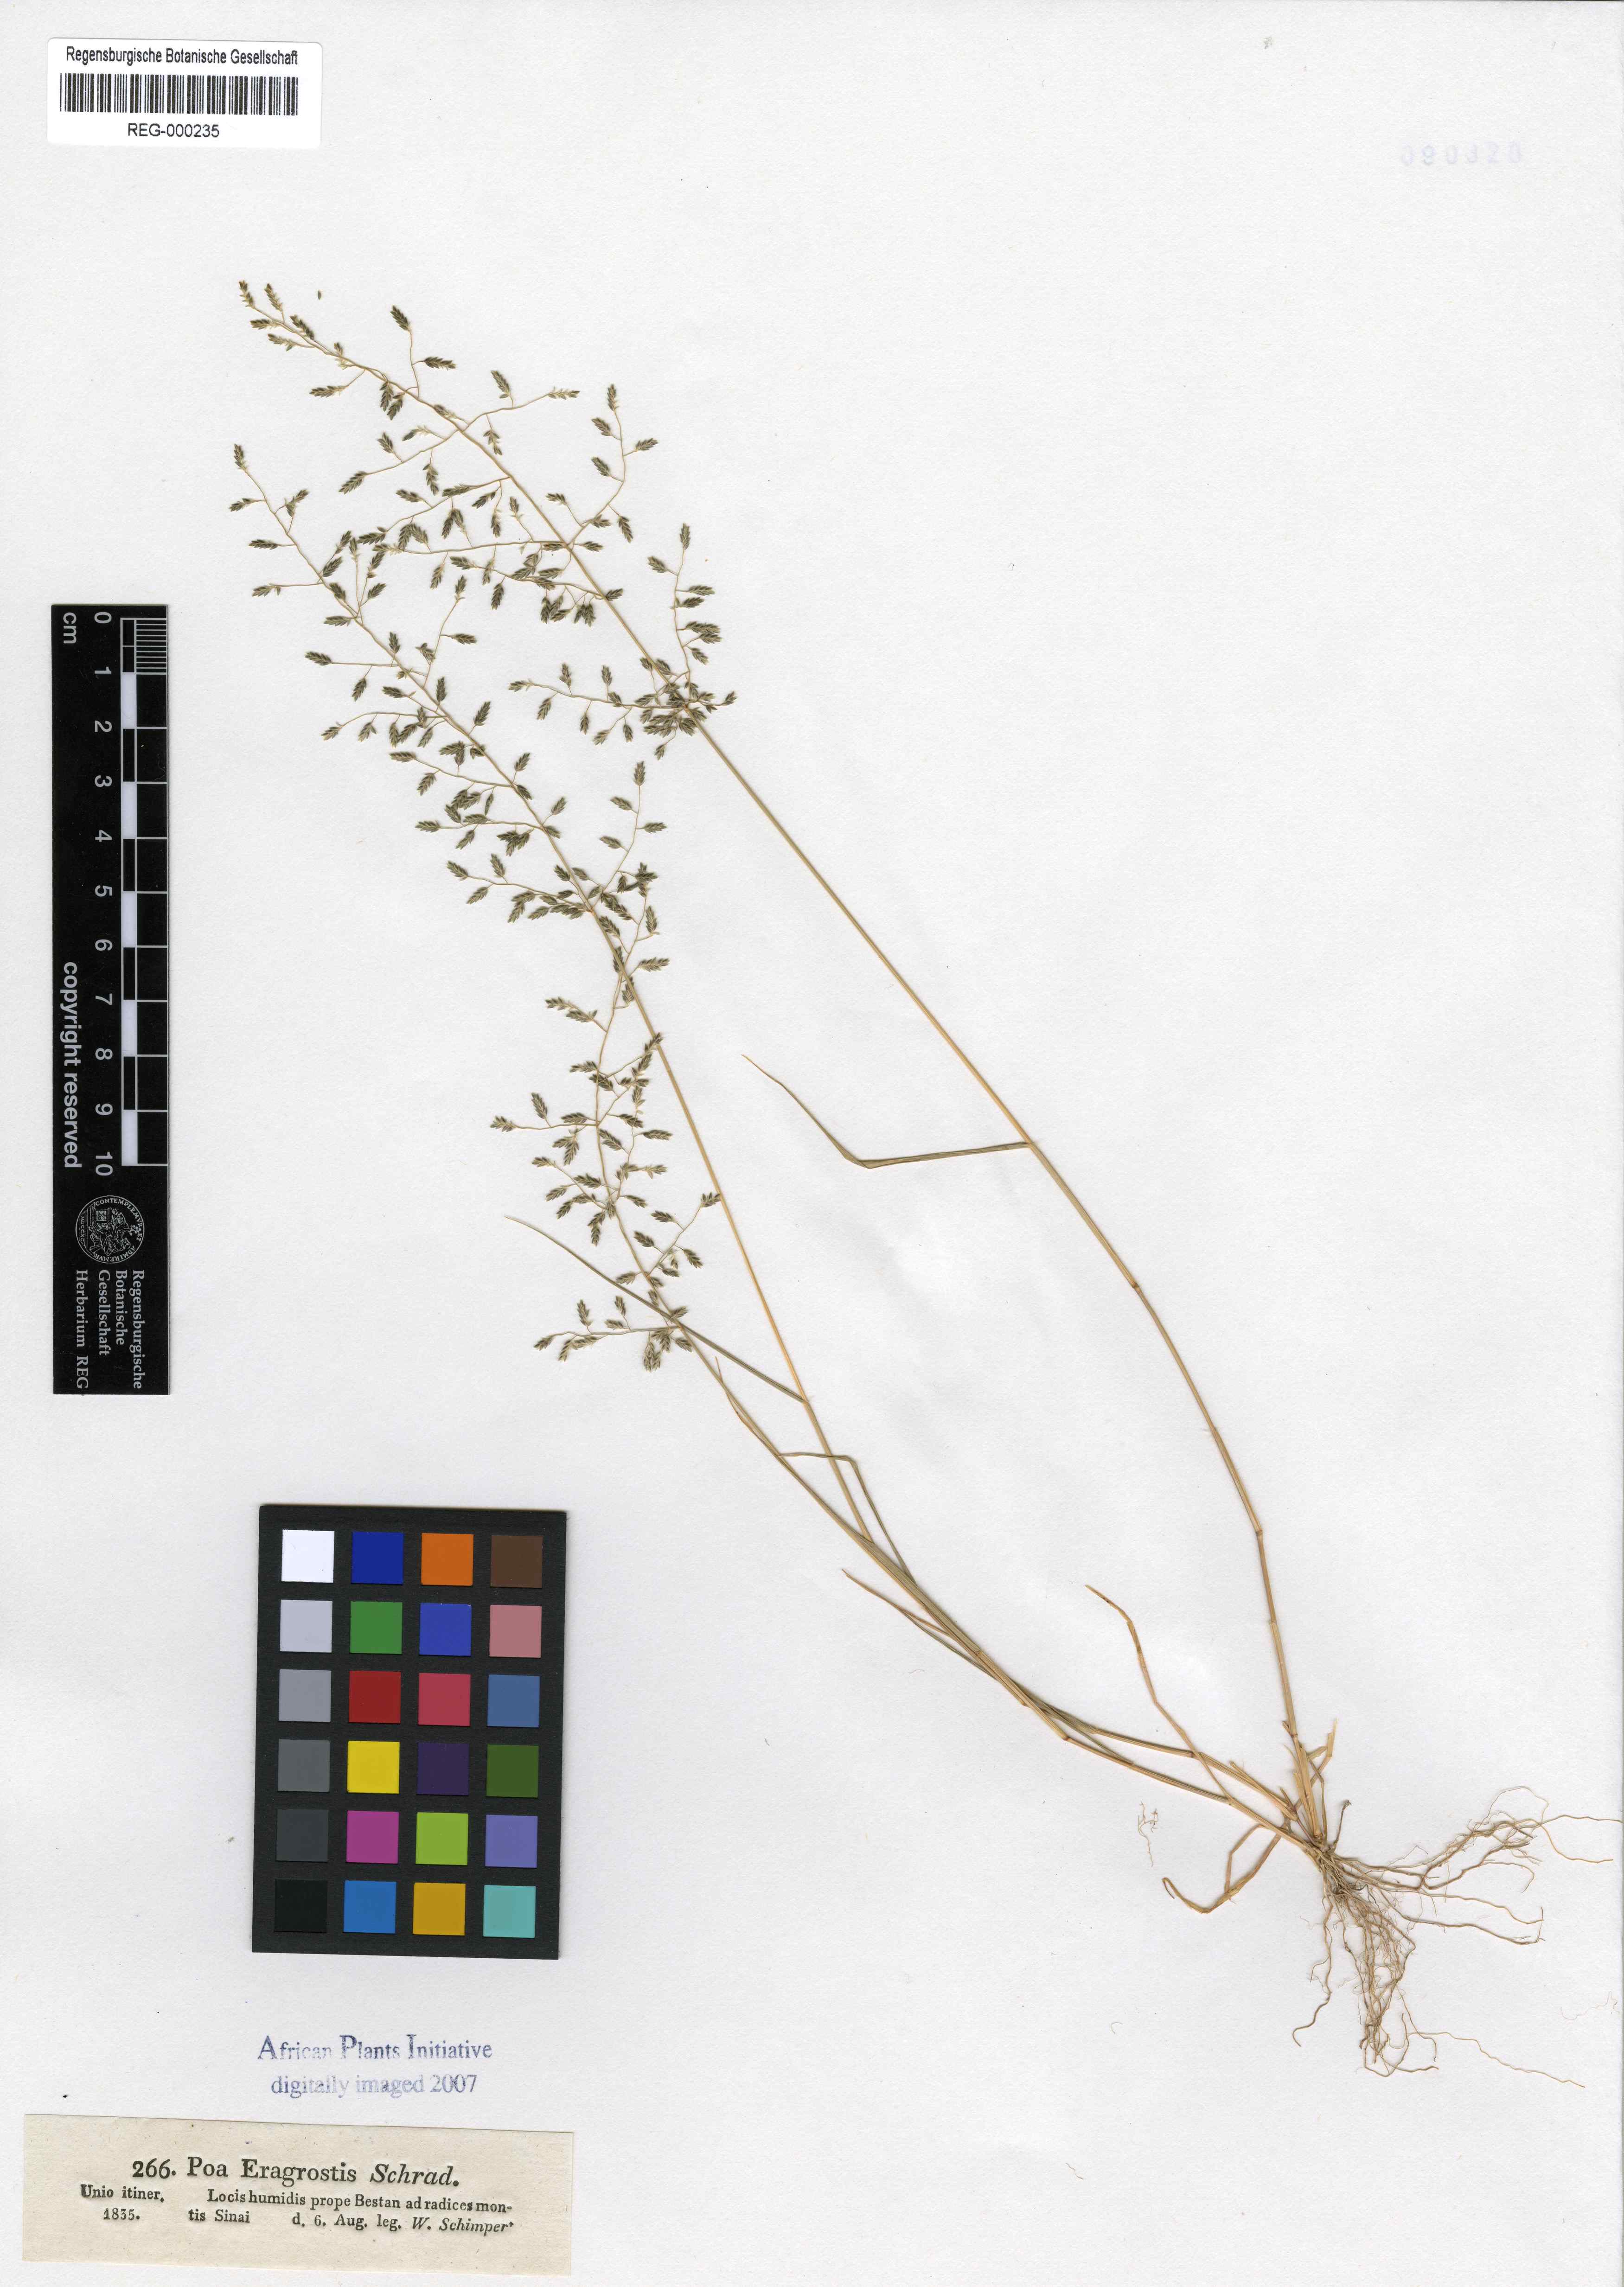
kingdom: Plantae
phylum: Tracheophyta
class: Liliopsida
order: Poales
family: Poaceae
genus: Eragrostis
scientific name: Eragrostis minor
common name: Small love-grass
